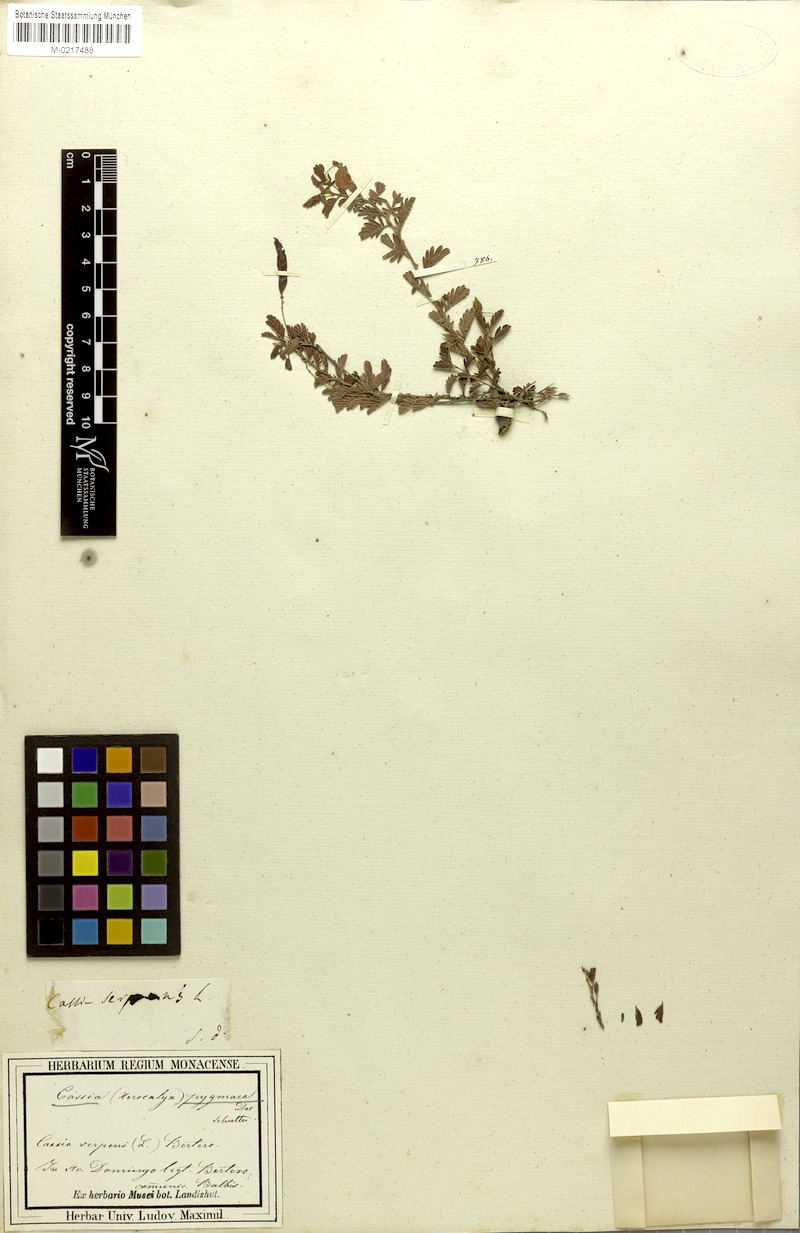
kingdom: Plantae
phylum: Tracheophyta
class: Magnoliopsida
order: Fabales
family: Fabaceae
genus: Chamaecrista
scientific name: Chamaecrista pygmaea
